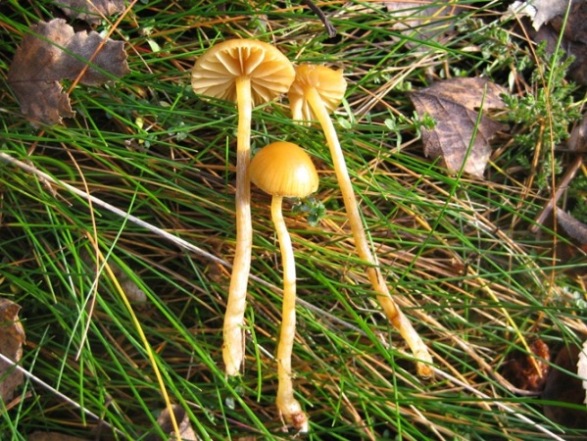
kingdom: Fungi
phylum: Basidiomycota
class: Agaricomycetes
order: Agaricales
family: Hymenogastraceae
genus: Galerina
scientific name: Galerina pumila
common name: honninggul hjelmhat
